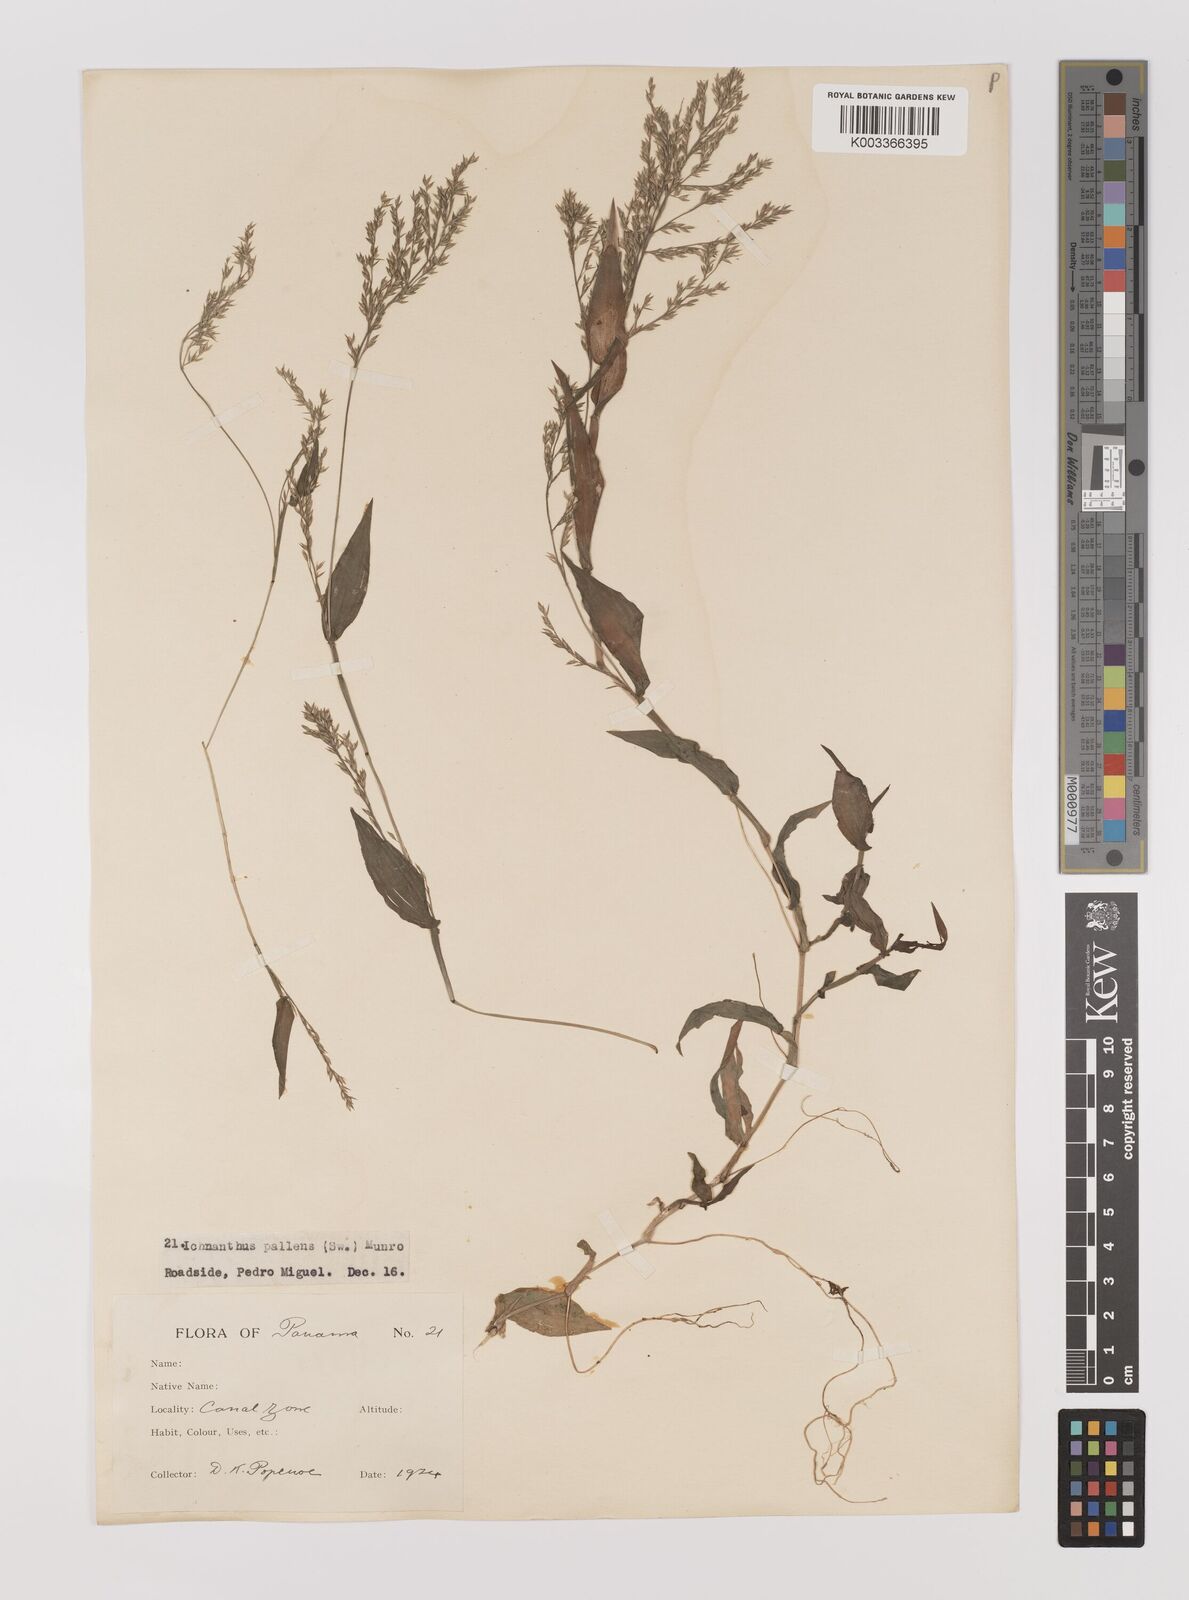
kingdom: Plantae
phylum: Tracheophyta
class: Liliopsida
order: Poales
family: Poaceae
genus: Ichnanthus
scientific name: Ichnanthus pallens
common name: Water grass
